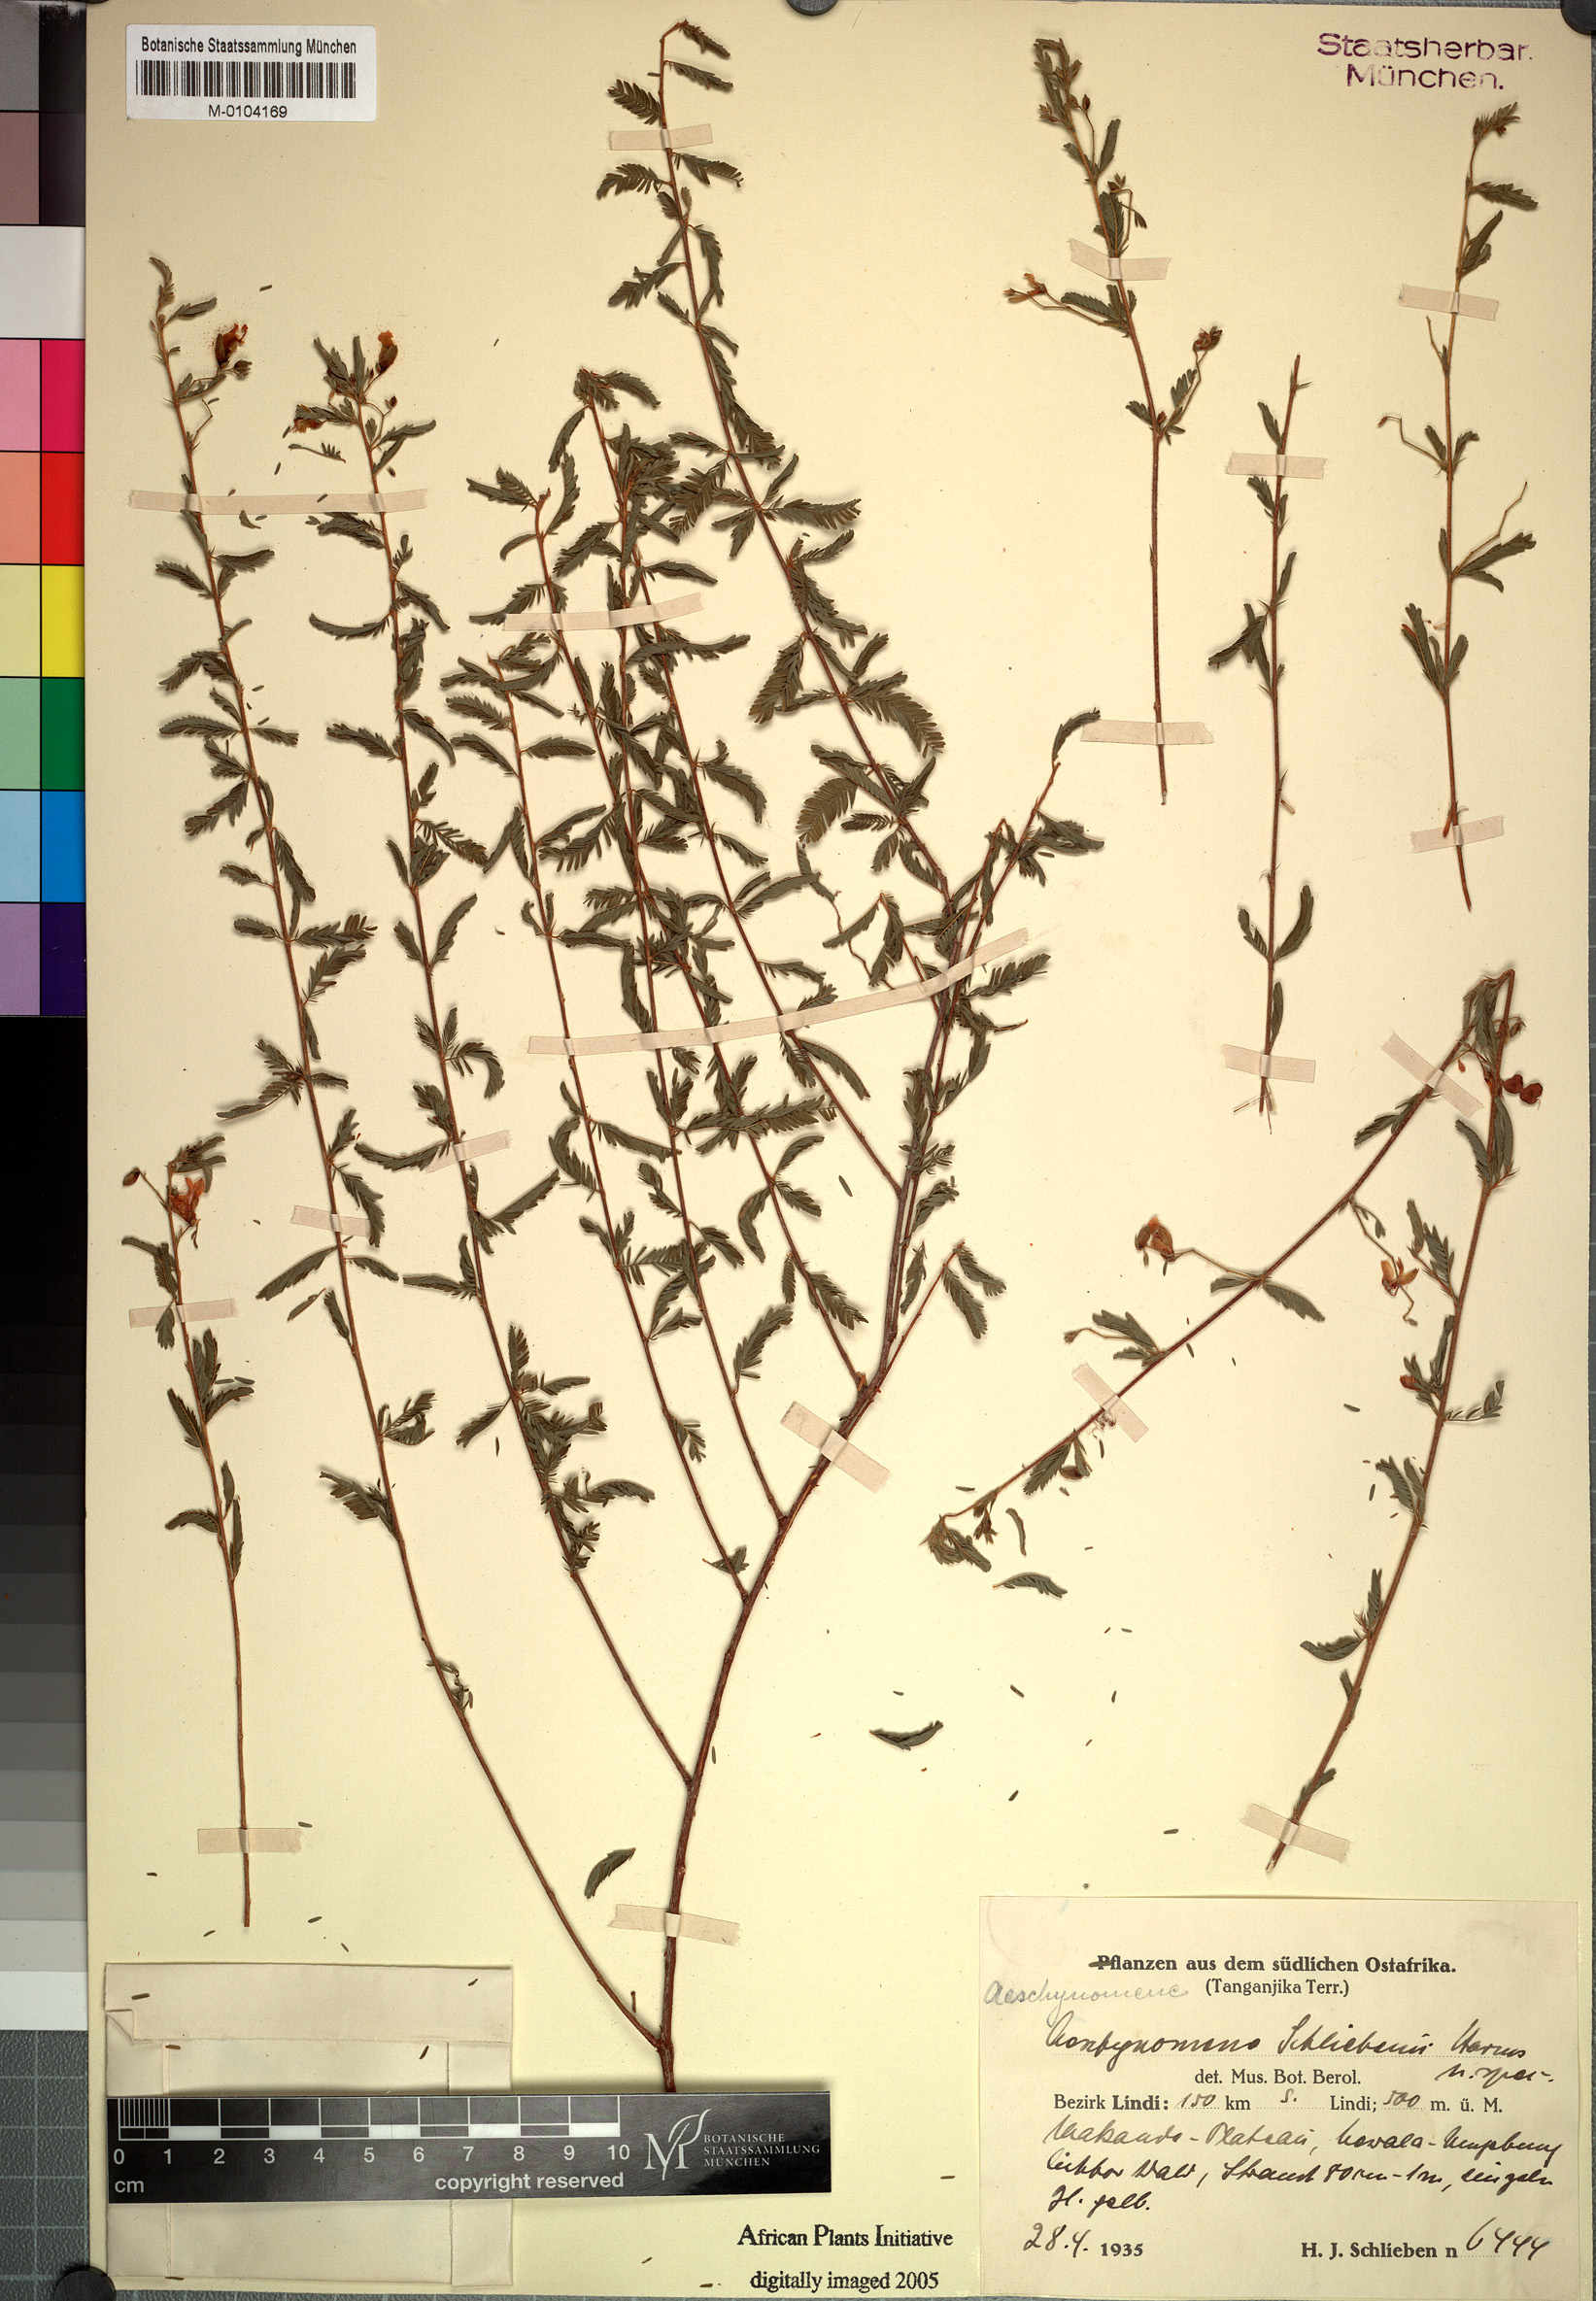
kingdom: Plantae
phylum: Tracheophyta
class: Magnoliopsida
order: Fabales
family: Fabaceae
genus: Aeschynomene
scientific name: Aeschynomene schliebenii
